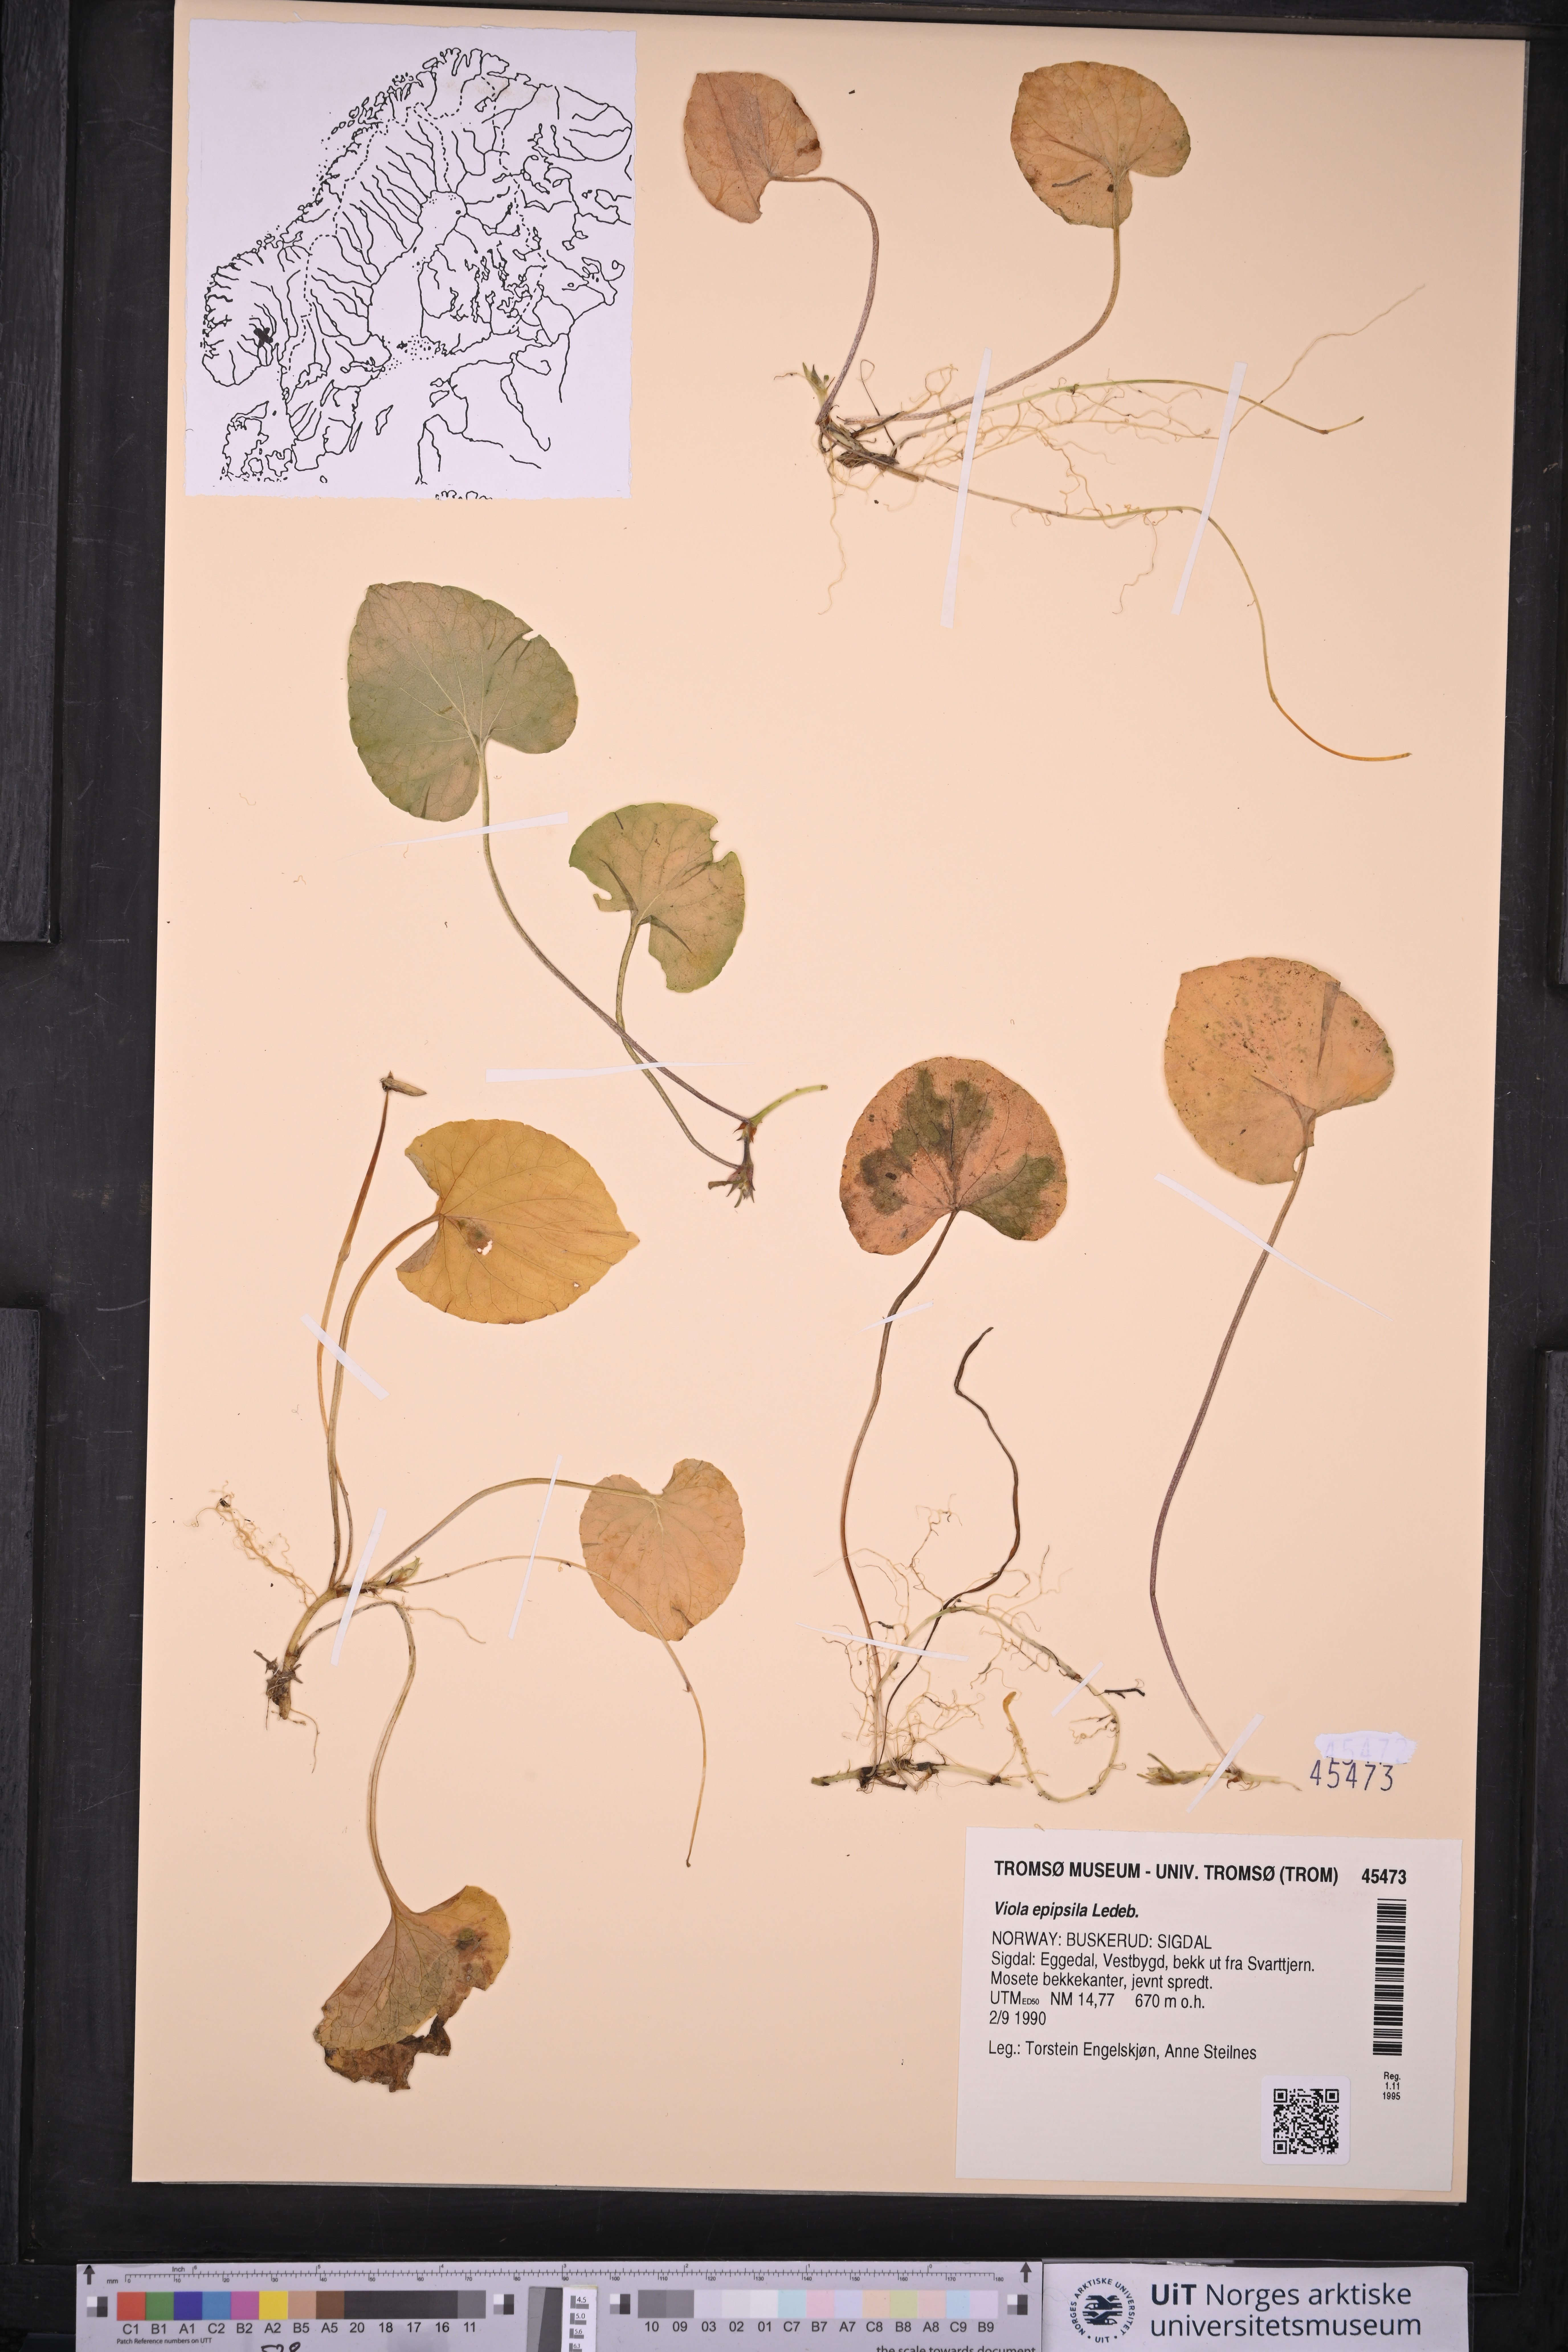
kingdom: Plantae
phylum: Tracheophyta
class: Magnoliopsida
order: Malpighiales
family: Violaceae
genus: Viola
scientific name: Viola epipsila
